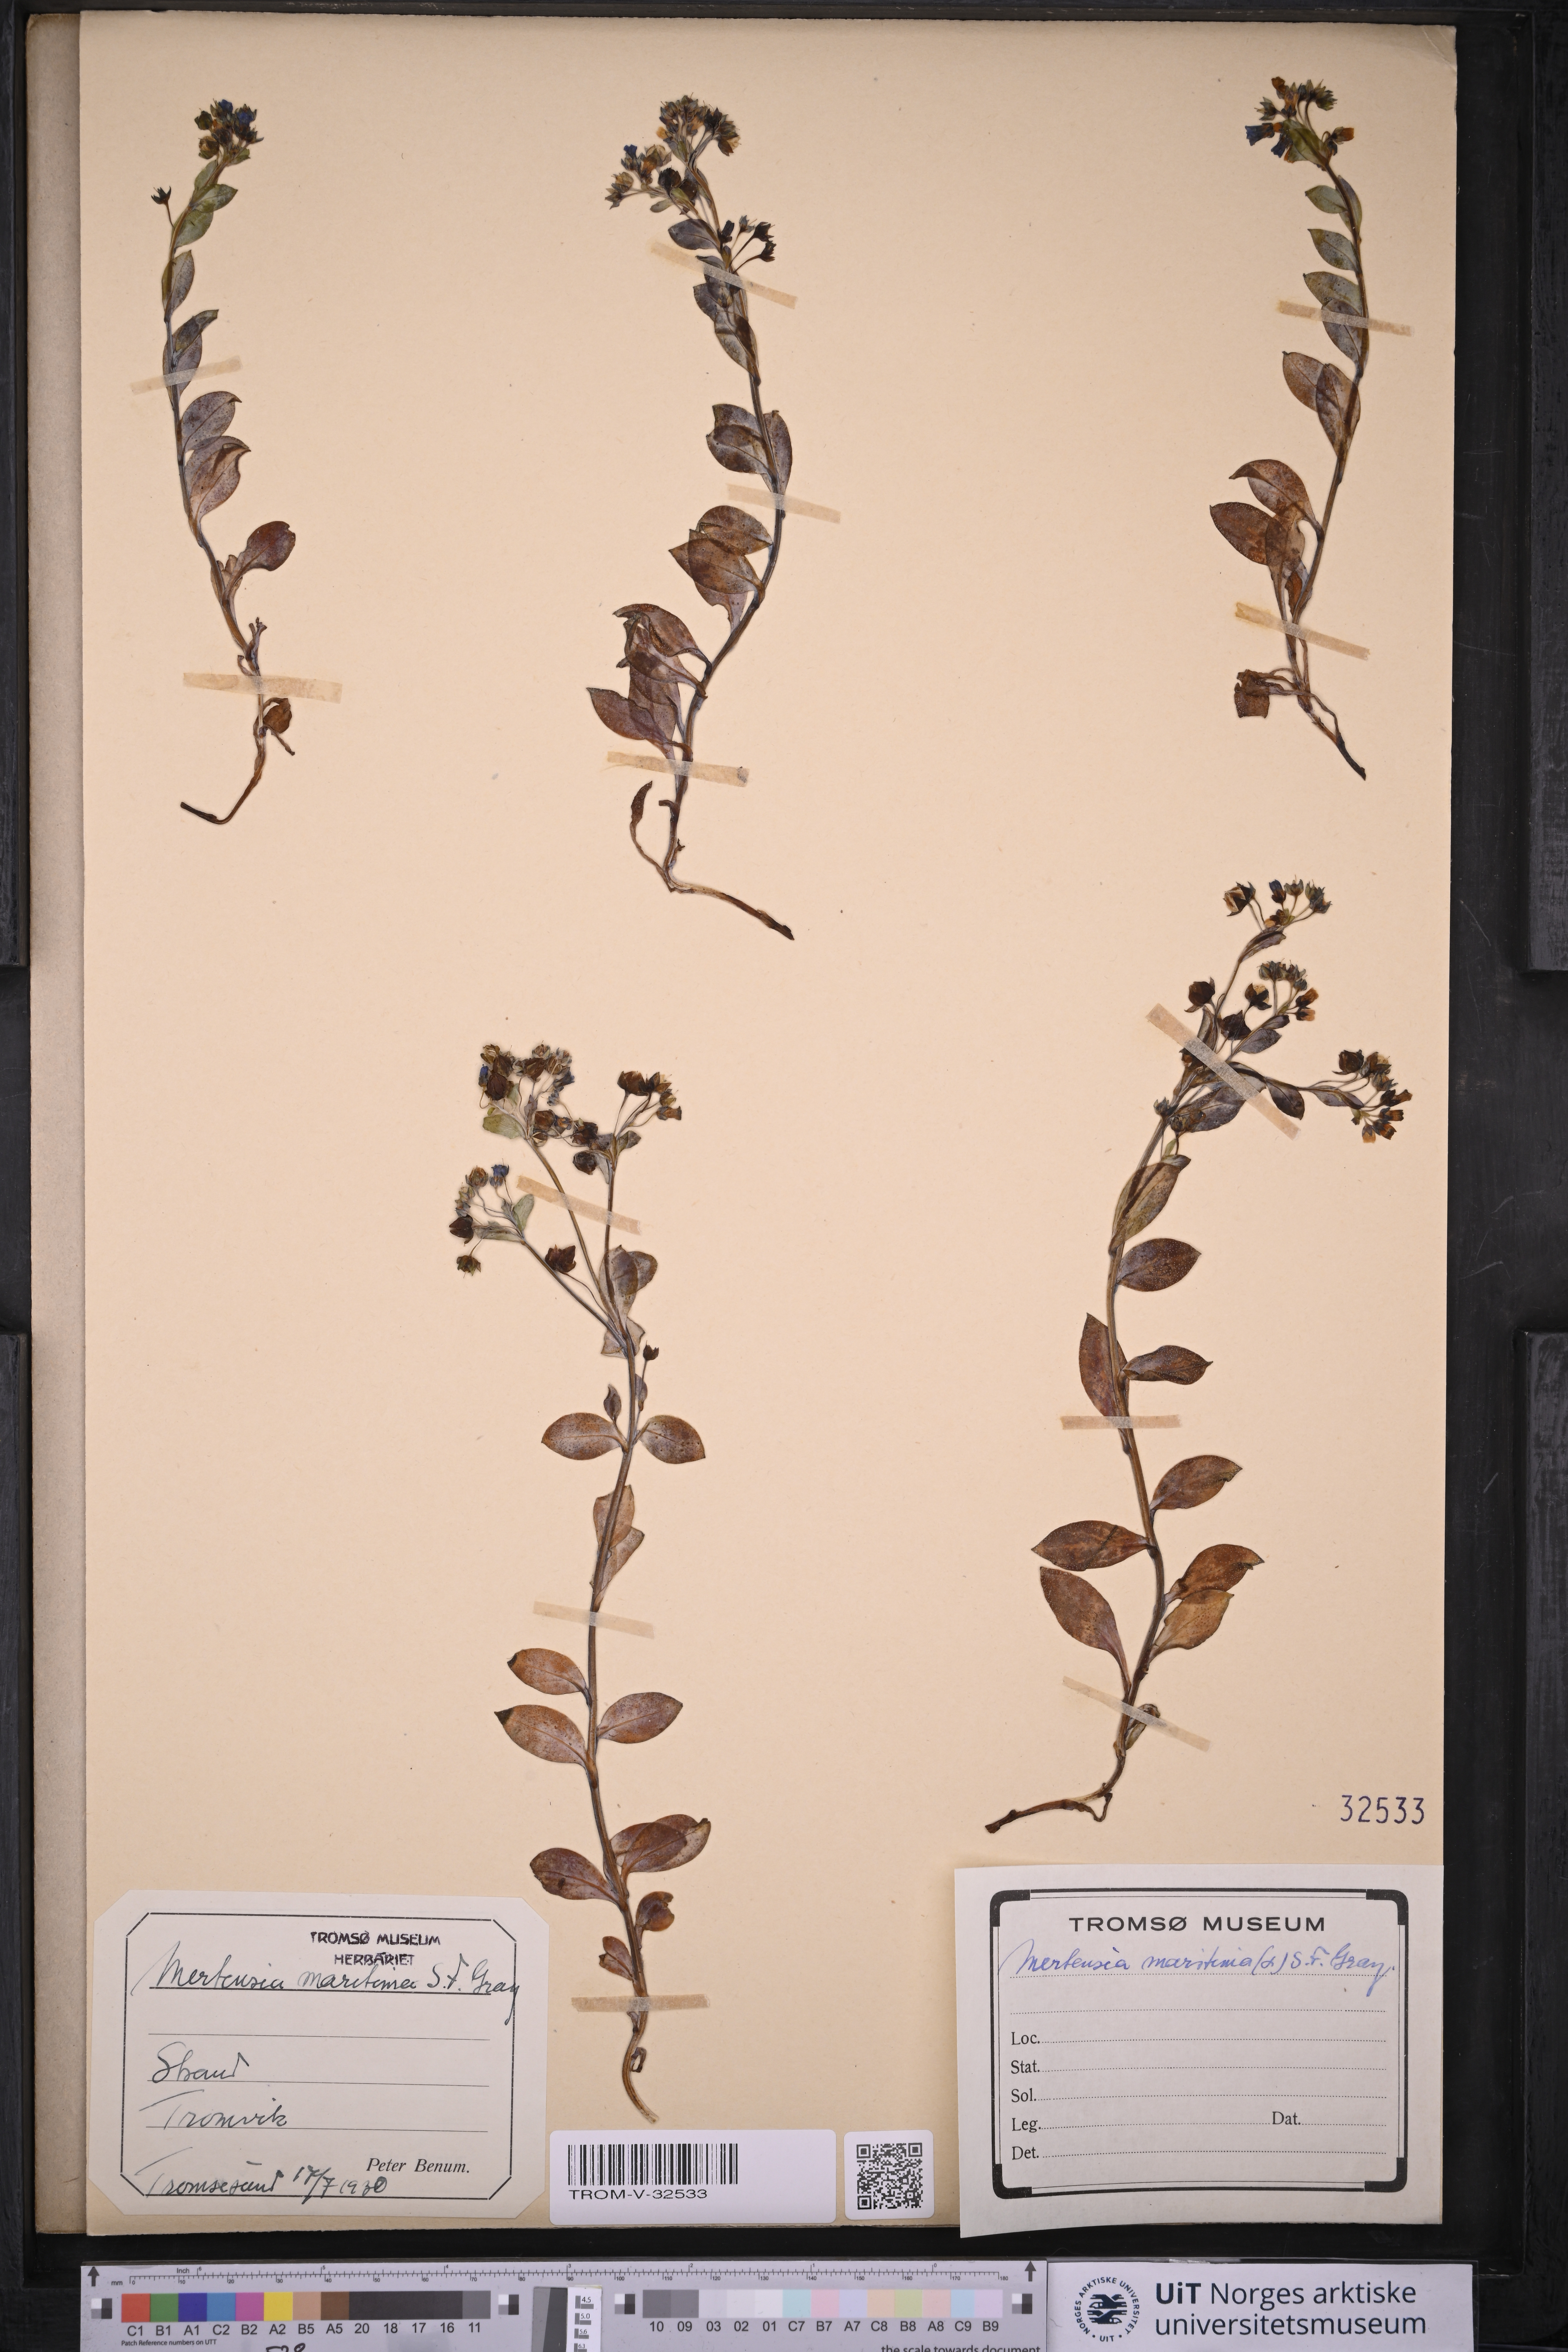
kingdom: Plantae
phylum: Tracheophyta
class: Magnoliopsida
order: Boraginales
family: Boraginaceae
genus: Mertensia
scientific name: Mertensia maritima
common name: Oysterplant
